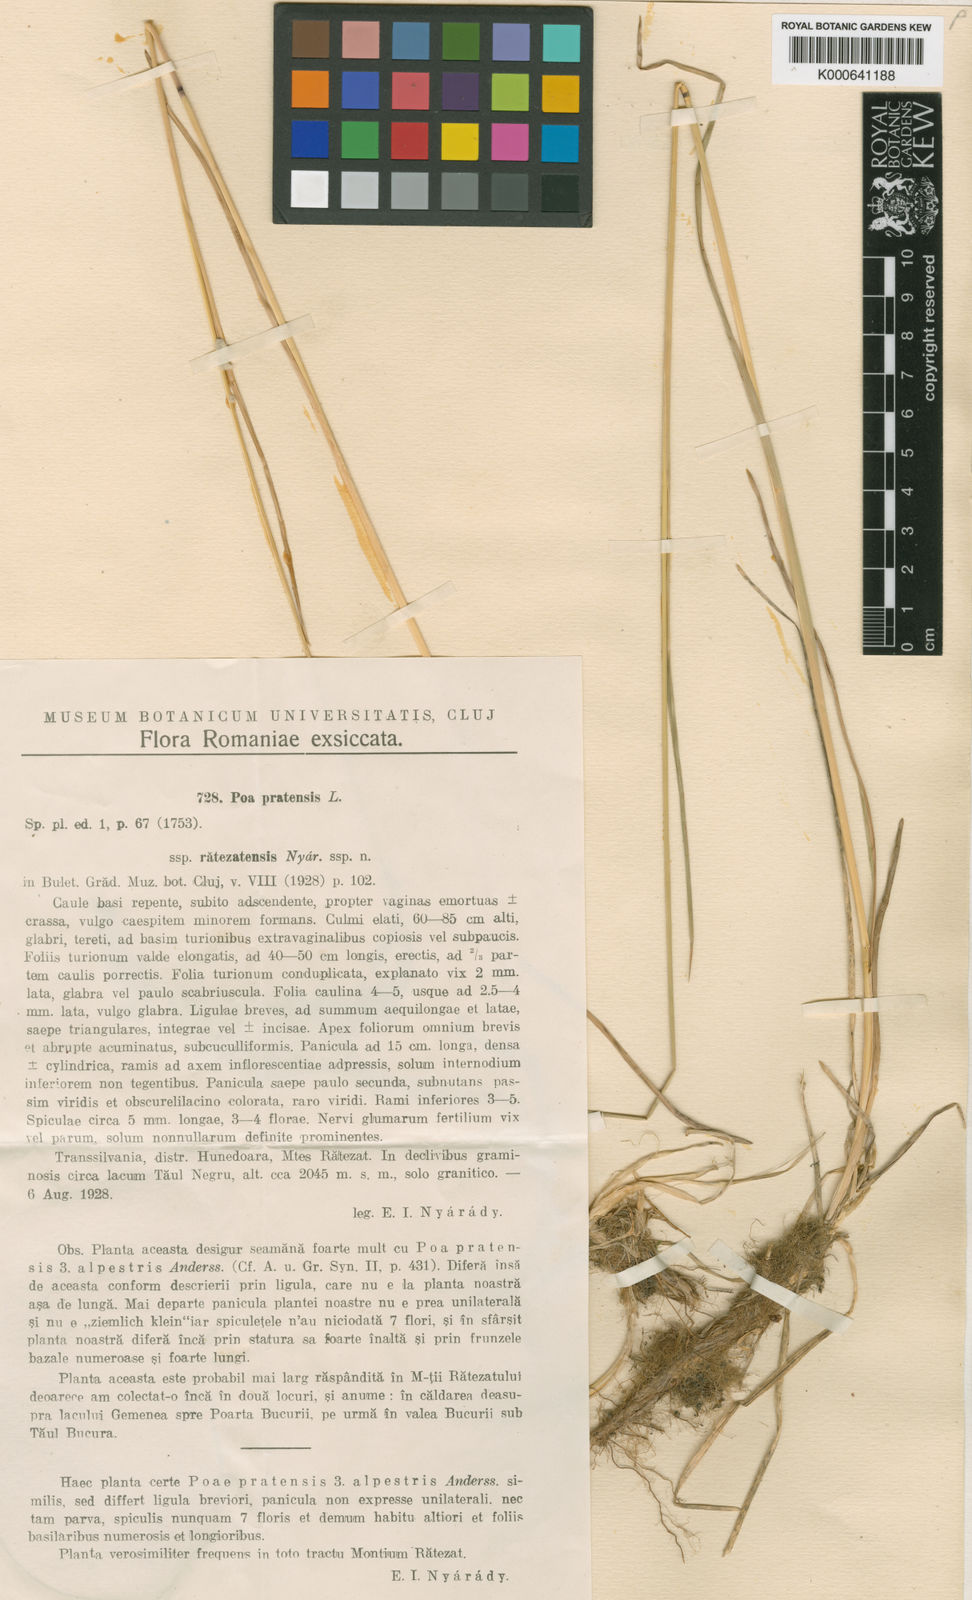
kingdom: Plantae
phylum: Tracheophyta
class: Liliopsida
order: Poales
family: Poaceae
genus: Poa
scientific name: Poa pratensis
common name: Kentucky bluegrass
